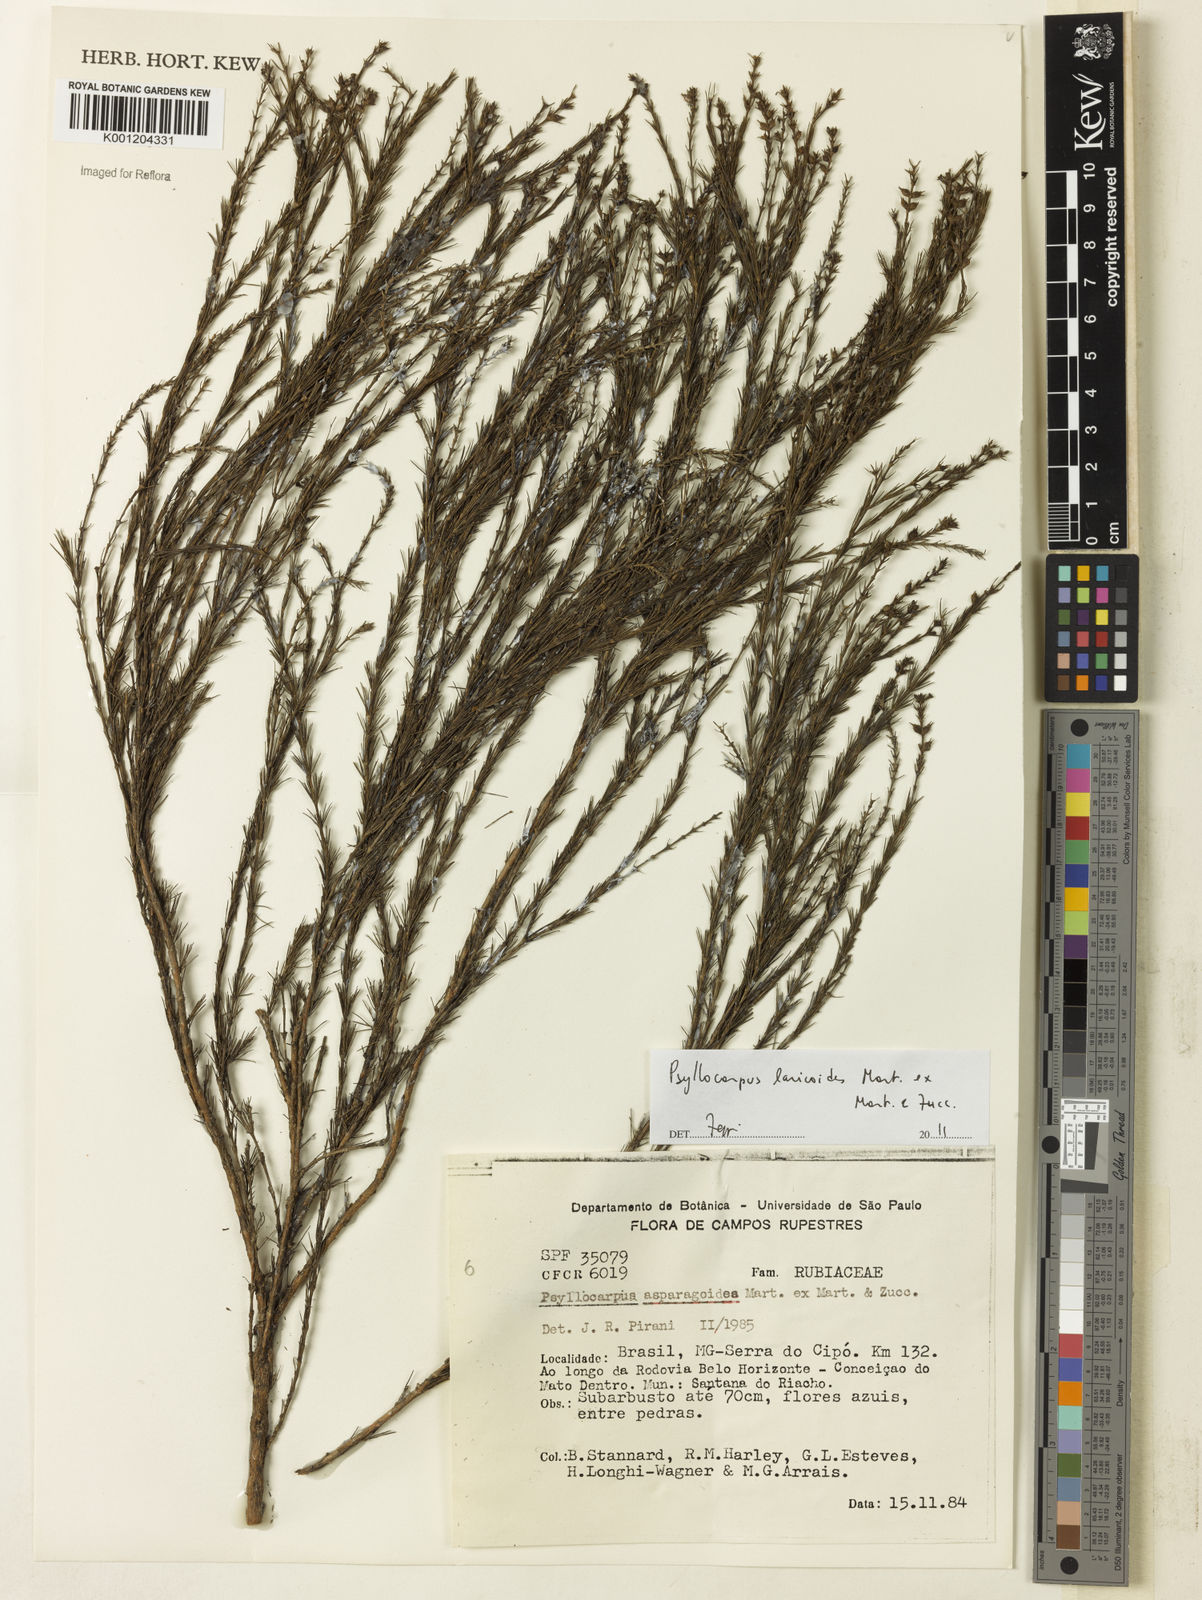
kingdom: Plantae
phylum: Tracheophyta
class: Magnoliopsida
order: Gentianales
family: Rubiaceae
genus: Psyllocarpus
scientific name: Psyllocarpus laricoides
